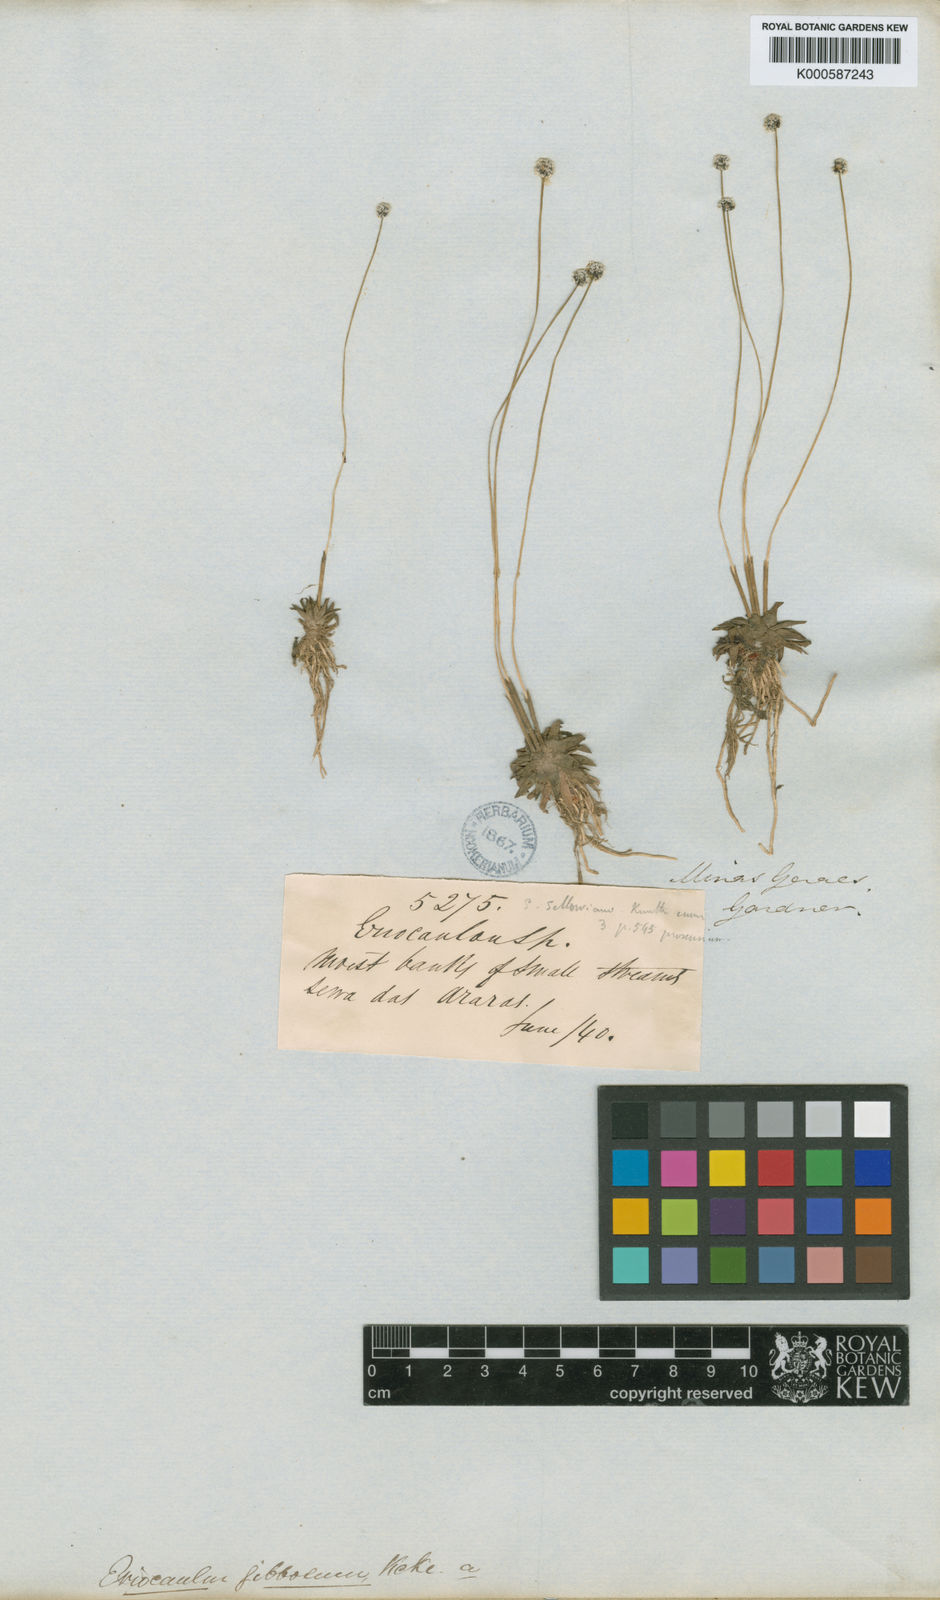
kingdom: Plantae
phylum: Tracheophyta
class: Liliopsida
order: Poales
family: Eriocaulaceae
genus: Eriocaulon
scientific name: Eriocaulon
